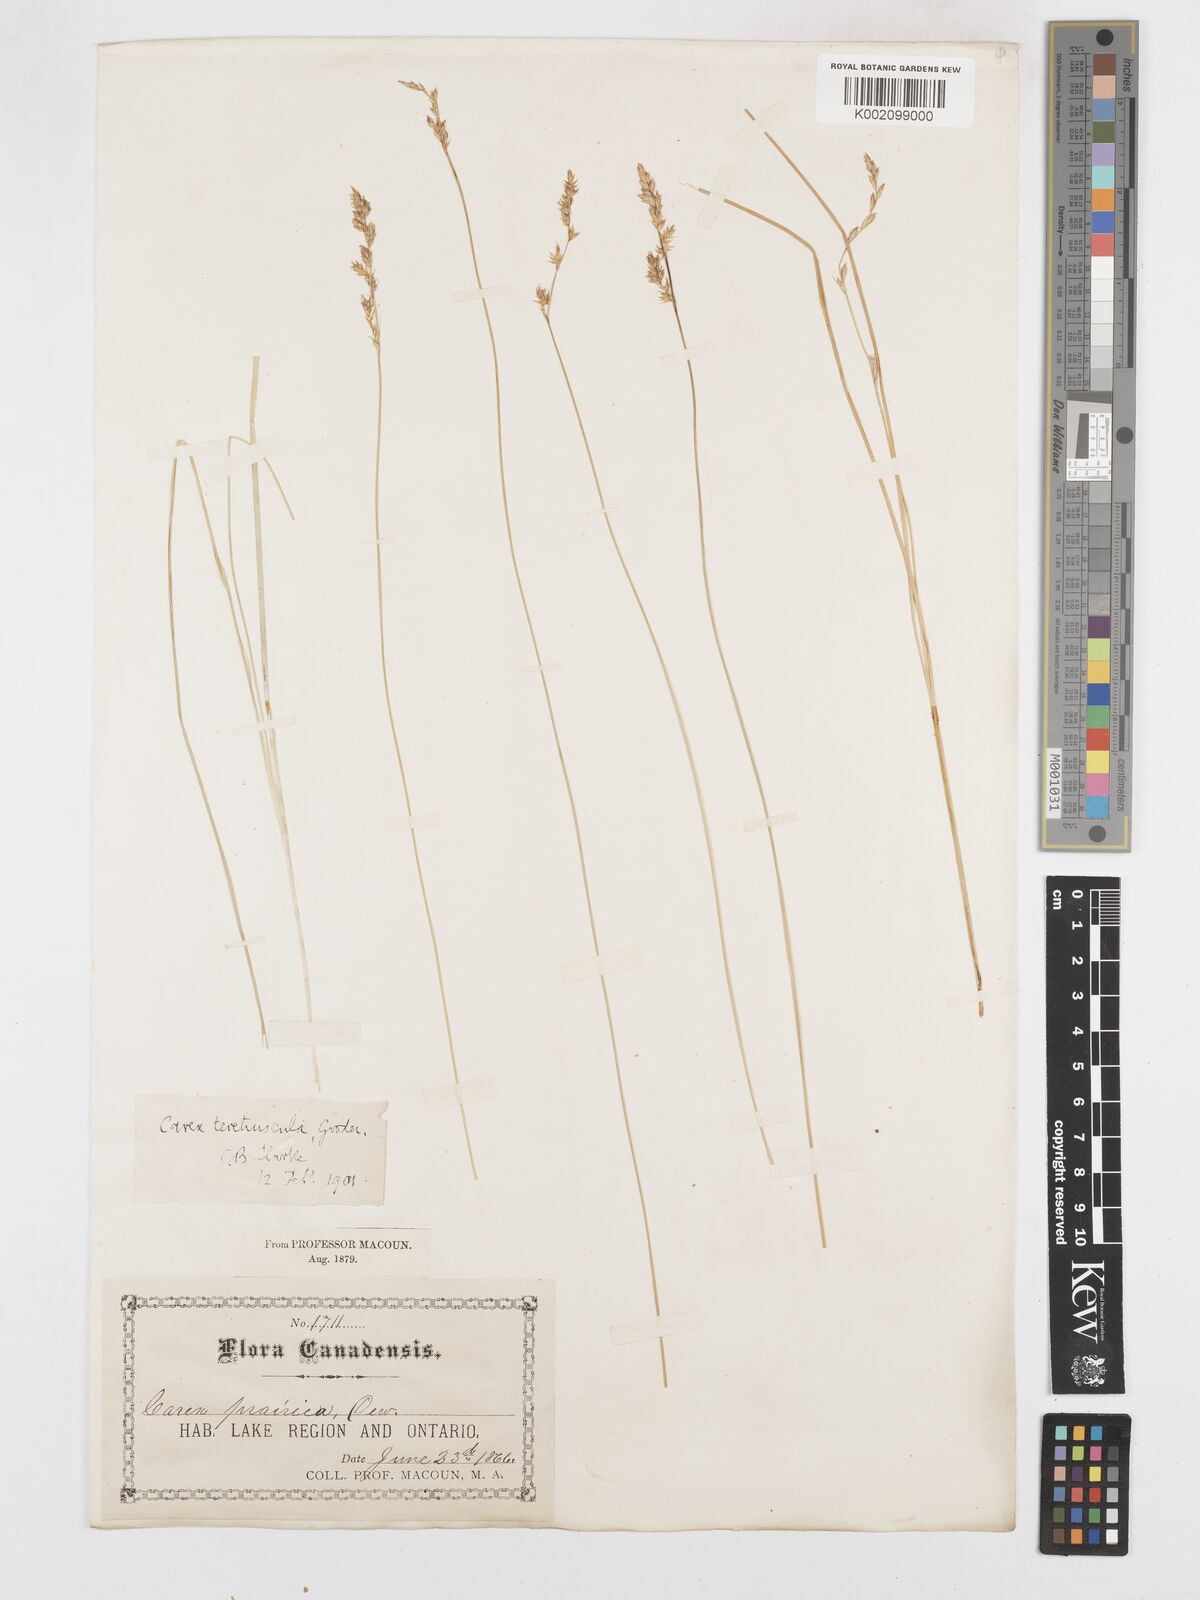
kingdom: Plantae
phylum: Tracheophyta
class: Liliopsida
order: Poales
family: Cyperaceae
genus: Carex
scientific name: Carex diandra
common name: Lesser tussock-sedge
